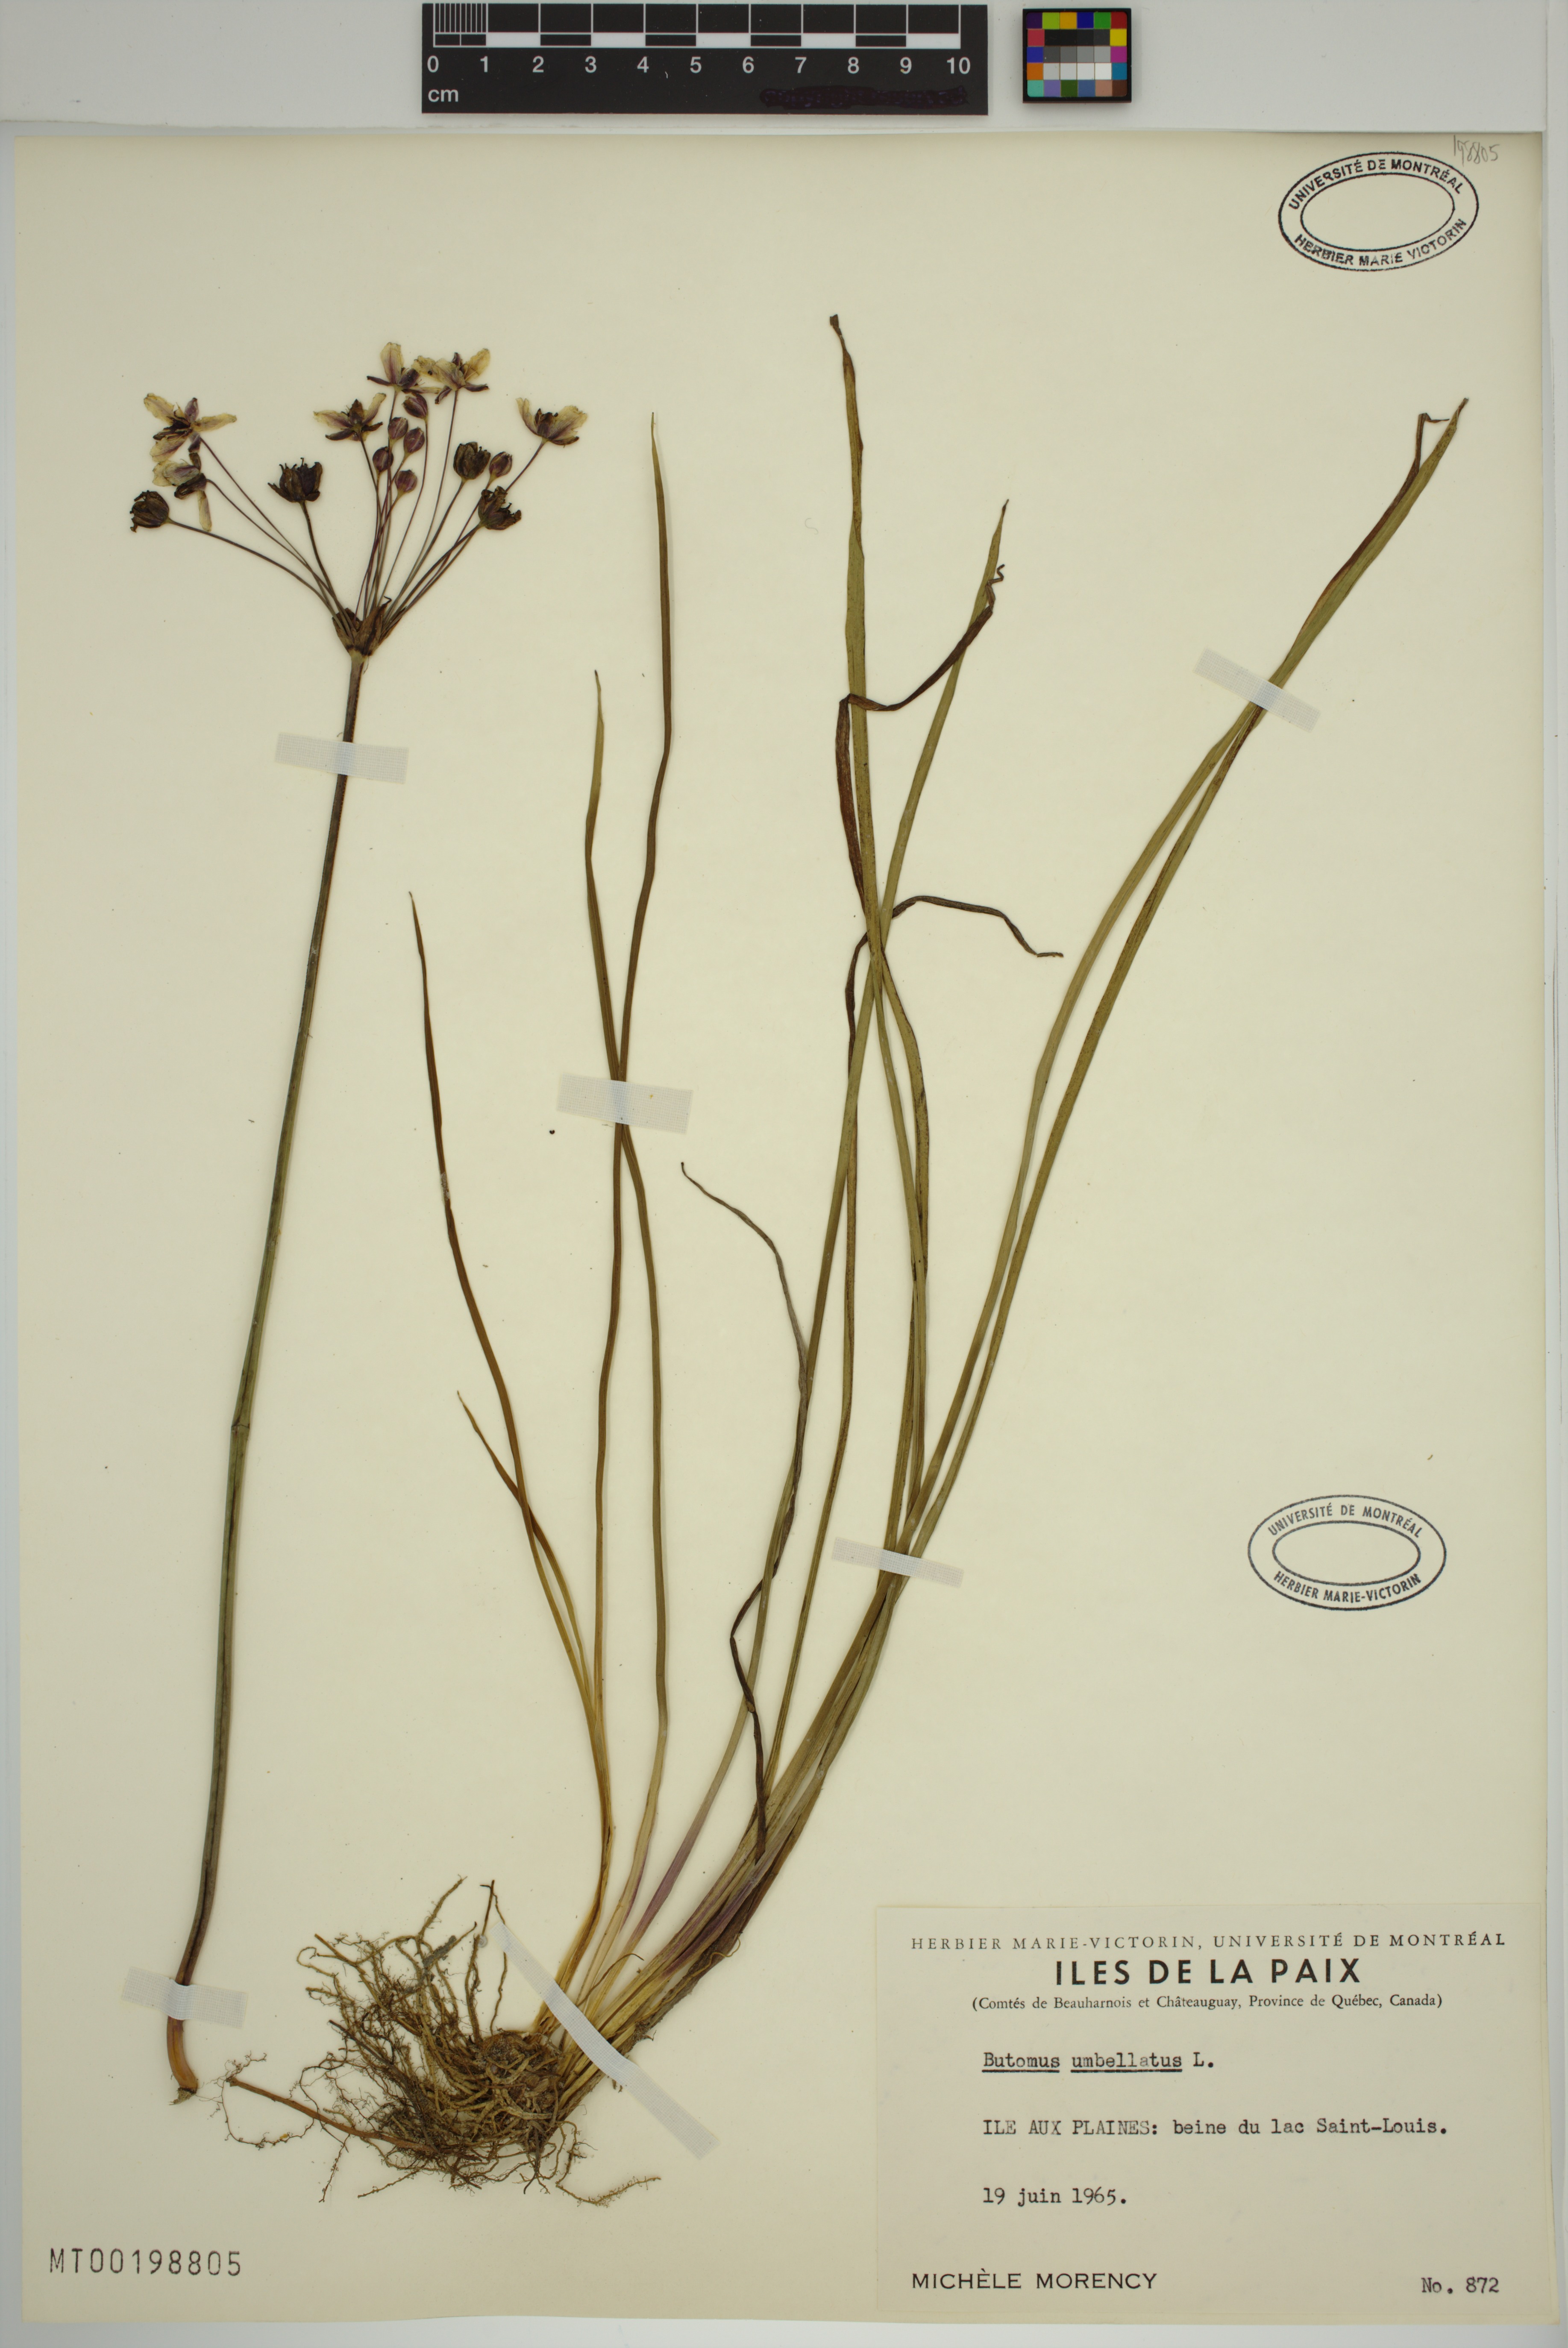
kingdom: Plantae
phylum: Tracheophyta
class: Liliopsida
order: Alismatales
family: Butomaceae
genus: Butomus
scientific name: Butomus umbellatus
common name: Flowering-rush
